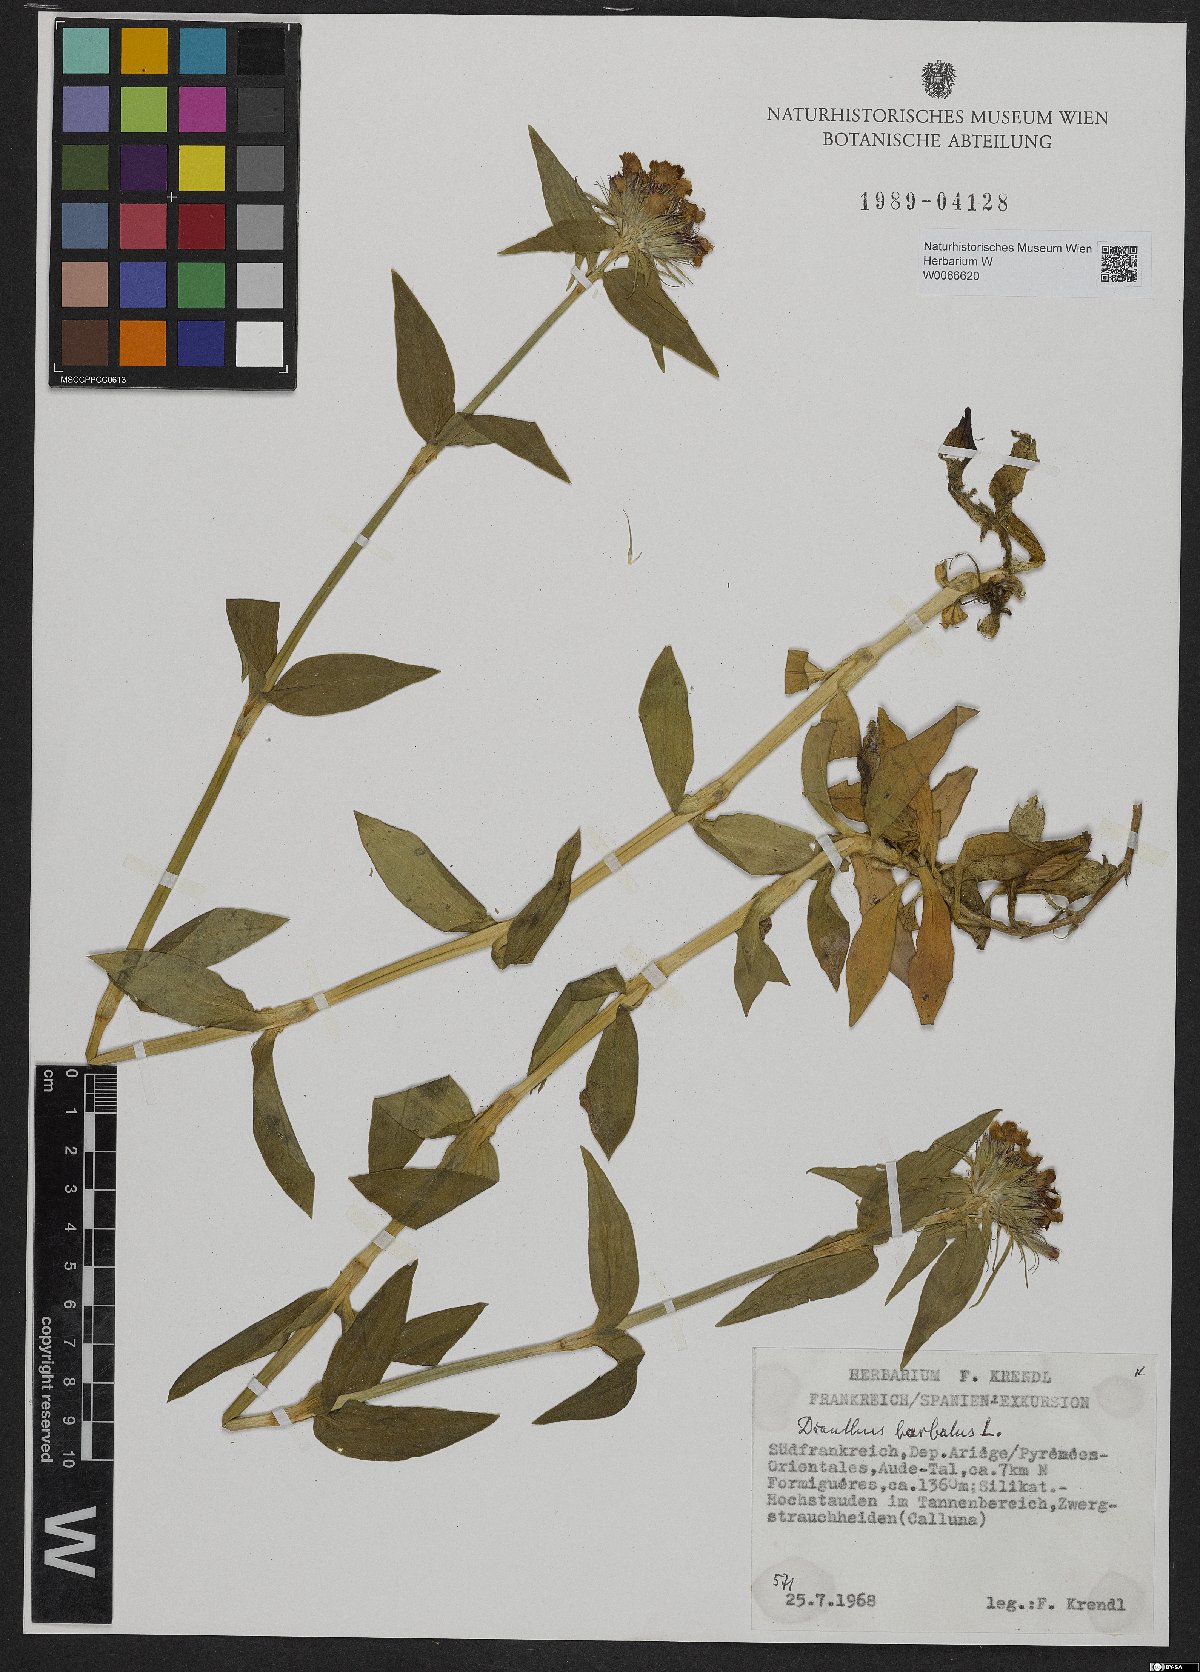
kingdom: Plantae
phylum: Tracheophyta
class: Magnoliopsida
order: Caryophyllales
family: Caryophyllaceae
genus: Dianthus
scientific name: Dianthus barbatus
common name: Sweet-william
